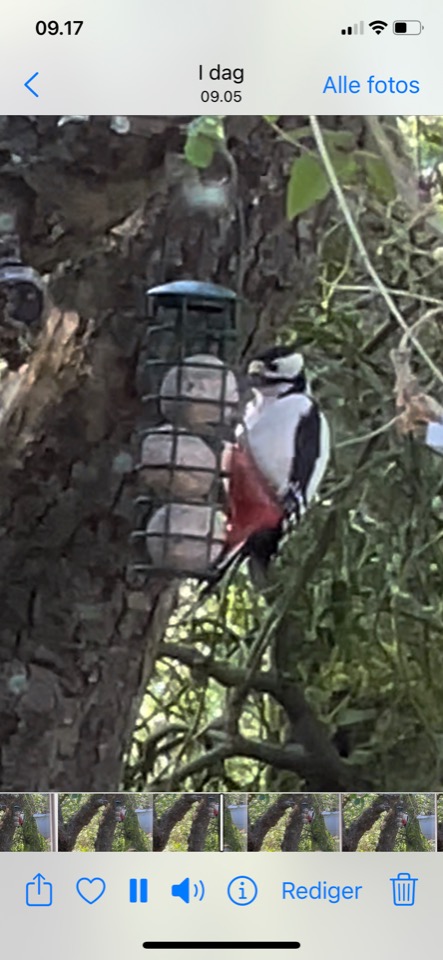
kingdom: Animalia
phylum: Chordata
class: Aves
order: Piciformes
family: Picidae
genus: Dendrocopos
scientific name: Dendrocopos major
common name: Stor flagspætte
